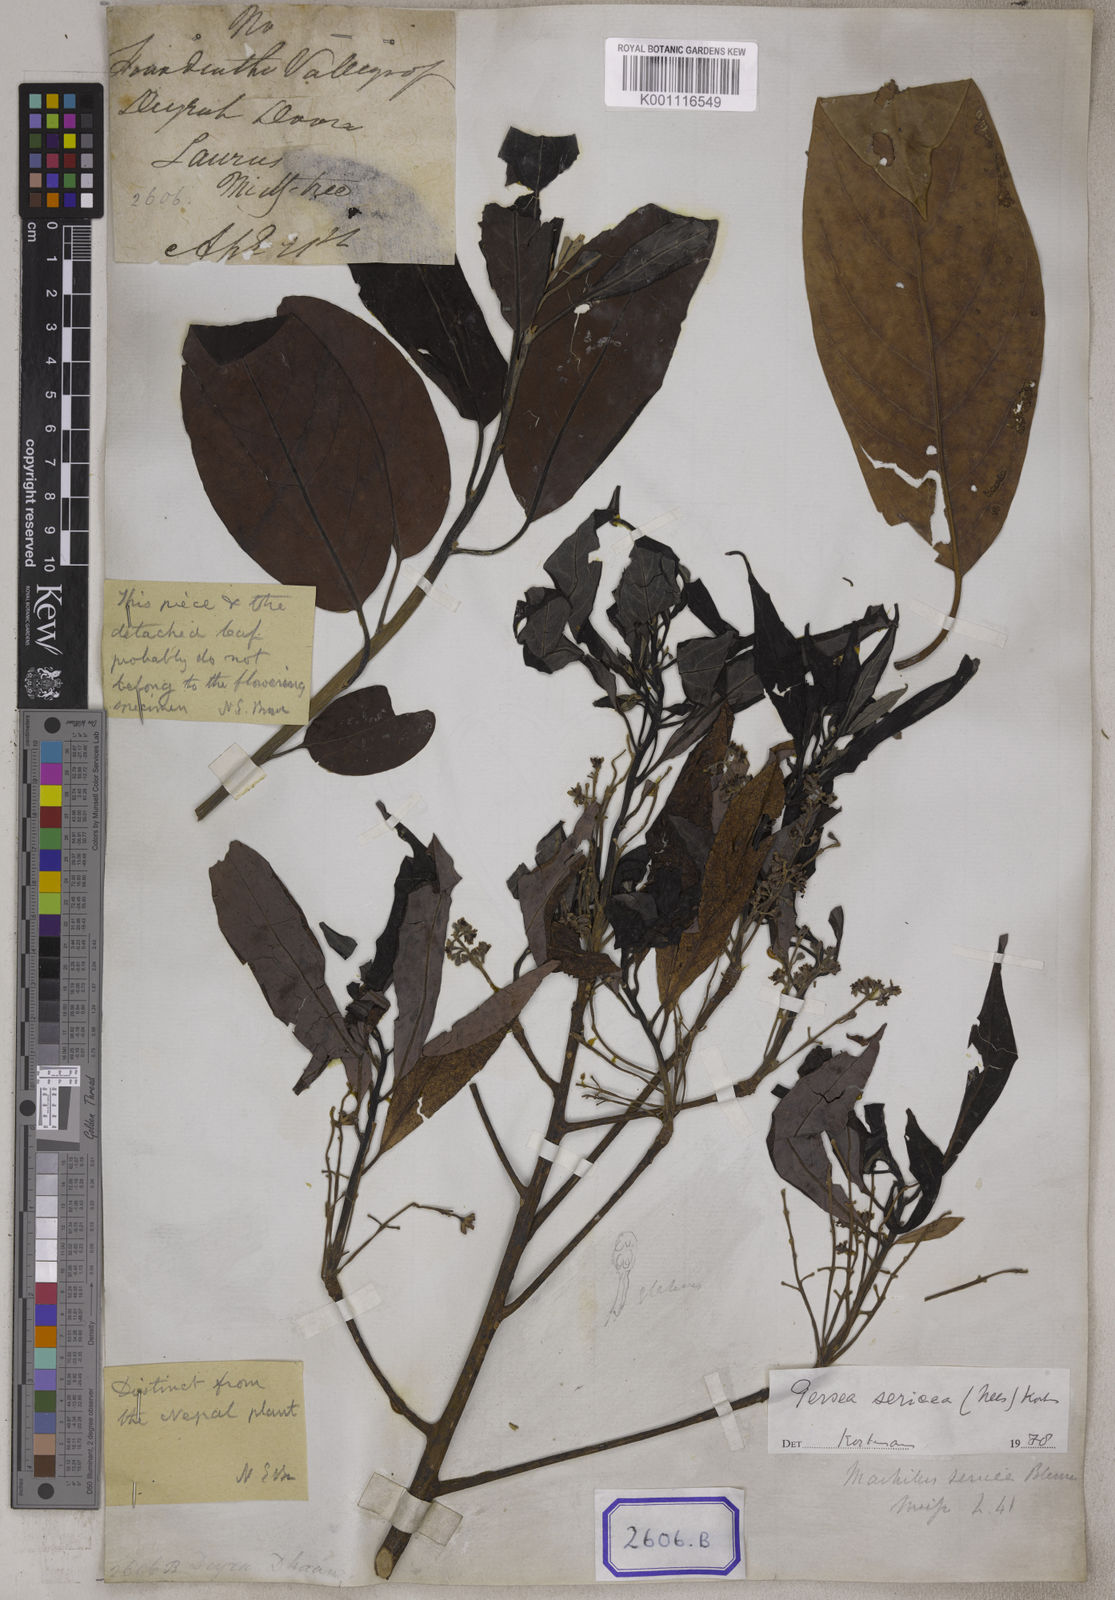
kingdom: Plantae
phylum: Tracheophyta
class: Magnoliopsida
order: Laurales
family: Lauraceae
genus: Machilus
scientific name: Machilus sericea
